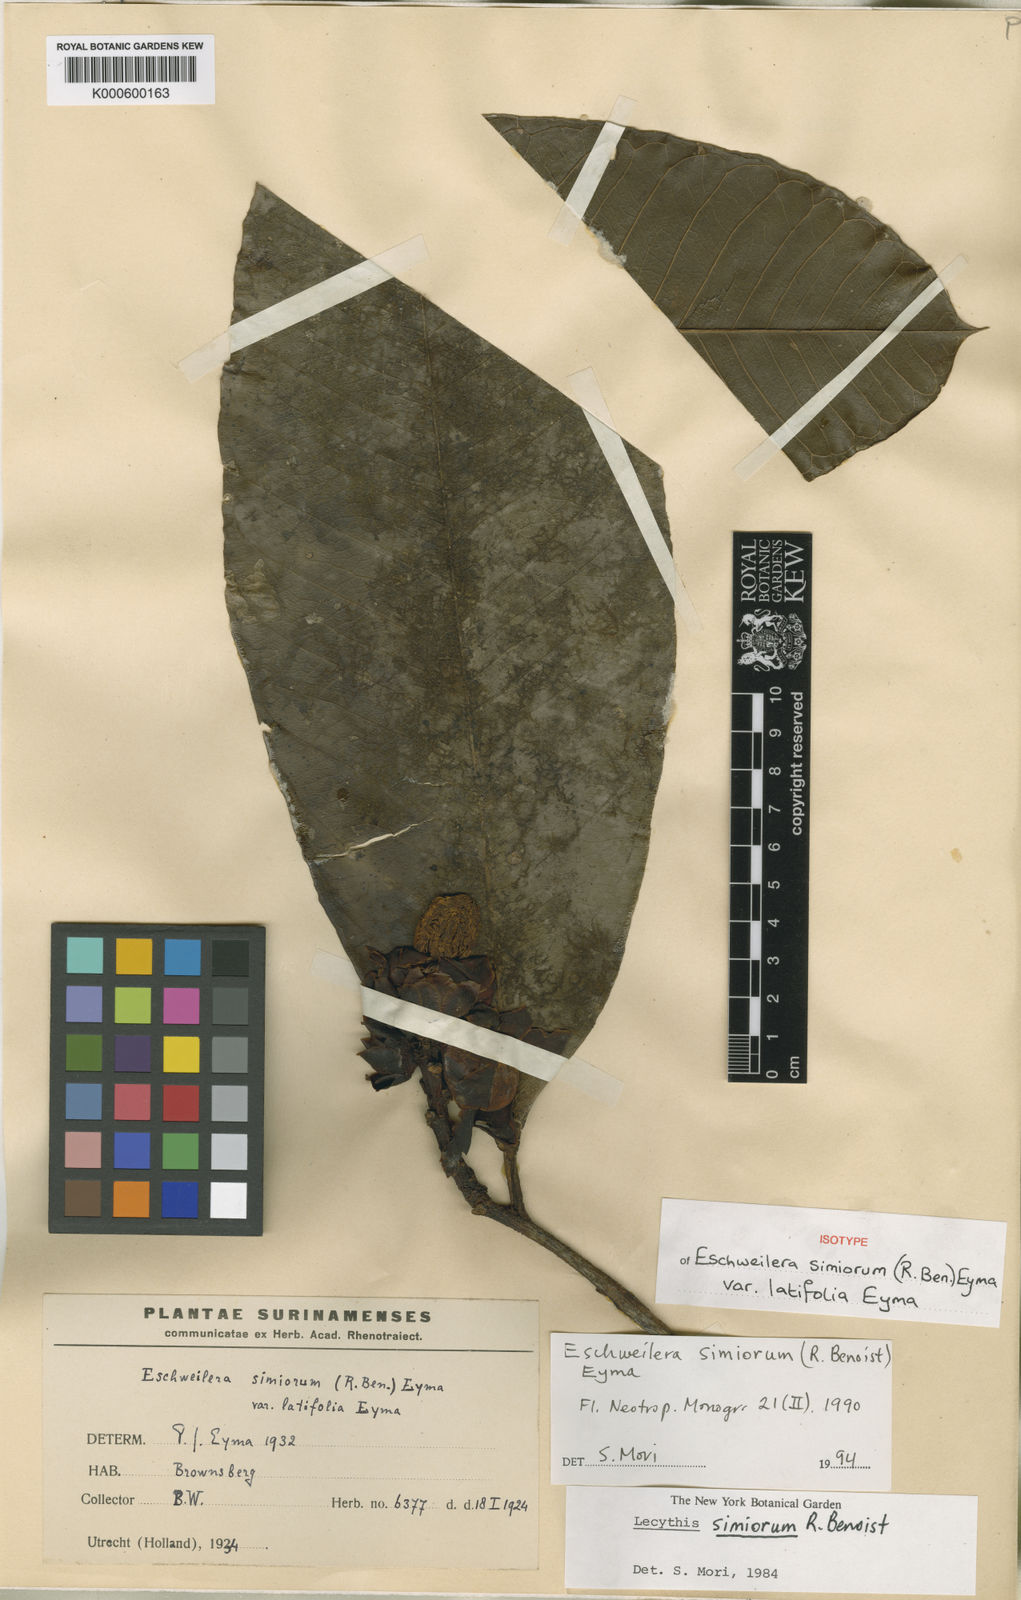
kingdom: Plantae
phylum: Tracheophyta
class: Magnoliopsida
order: Ericales
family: Lecythidaceae
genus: Eschweilera
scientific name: Eschweilera simiorum
